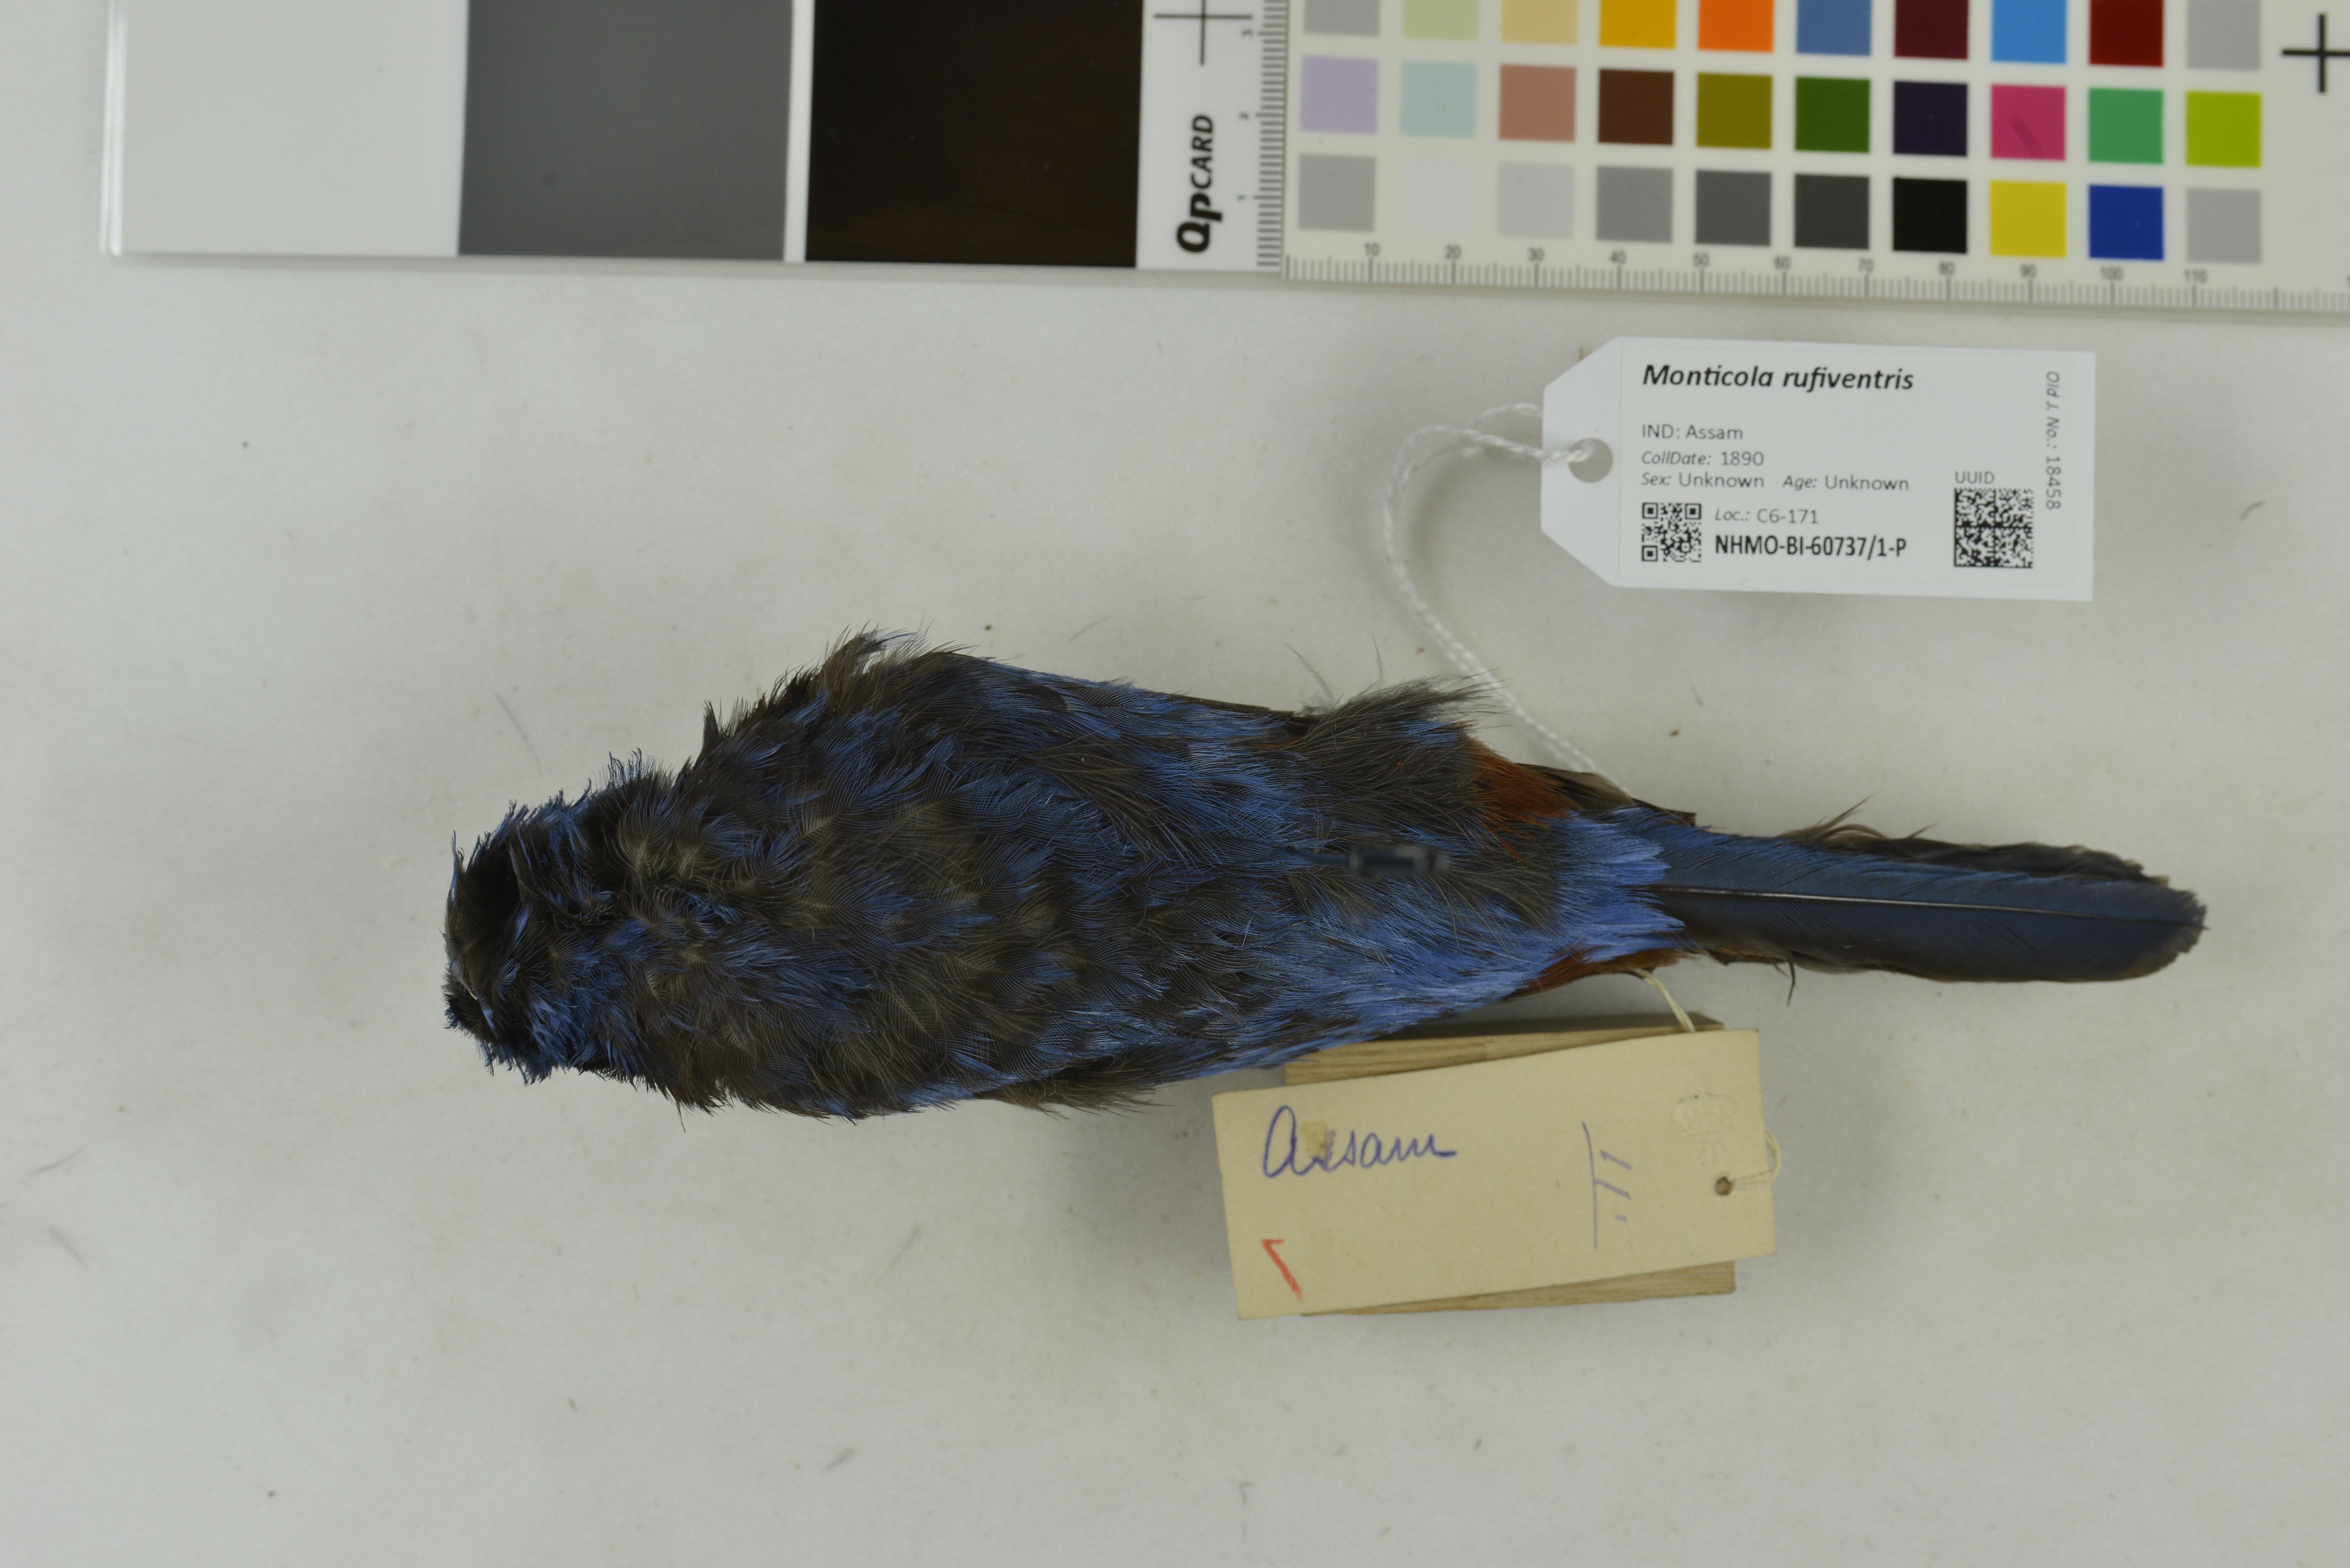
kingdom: Animalia
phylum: Chordata
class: Aves
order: Passeriformes
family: Muscicapidae
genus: Monticola
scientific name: Monticola rufiventris
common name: Chestnut-bellied rock thrush
